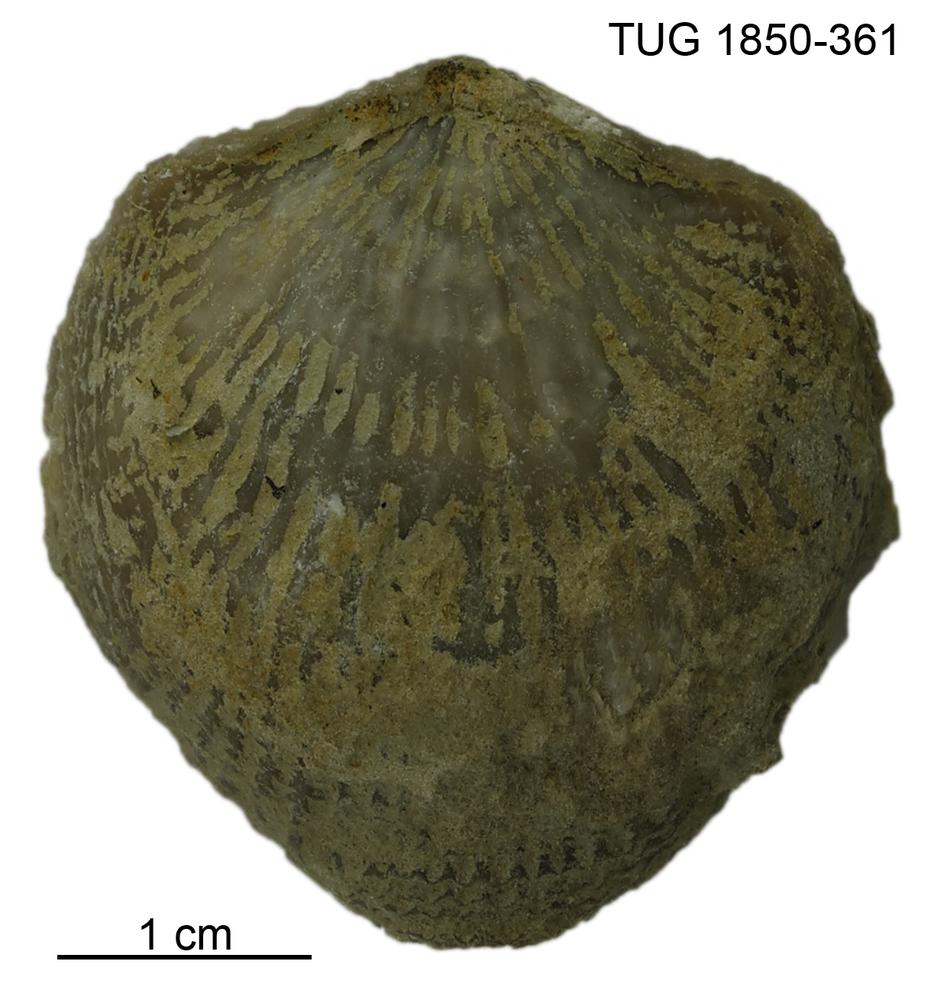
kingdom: Animalia
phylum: Brachiopoda
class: Rhynchonellata
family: Atrypidae
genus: Atrypa
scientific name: Atrypa
